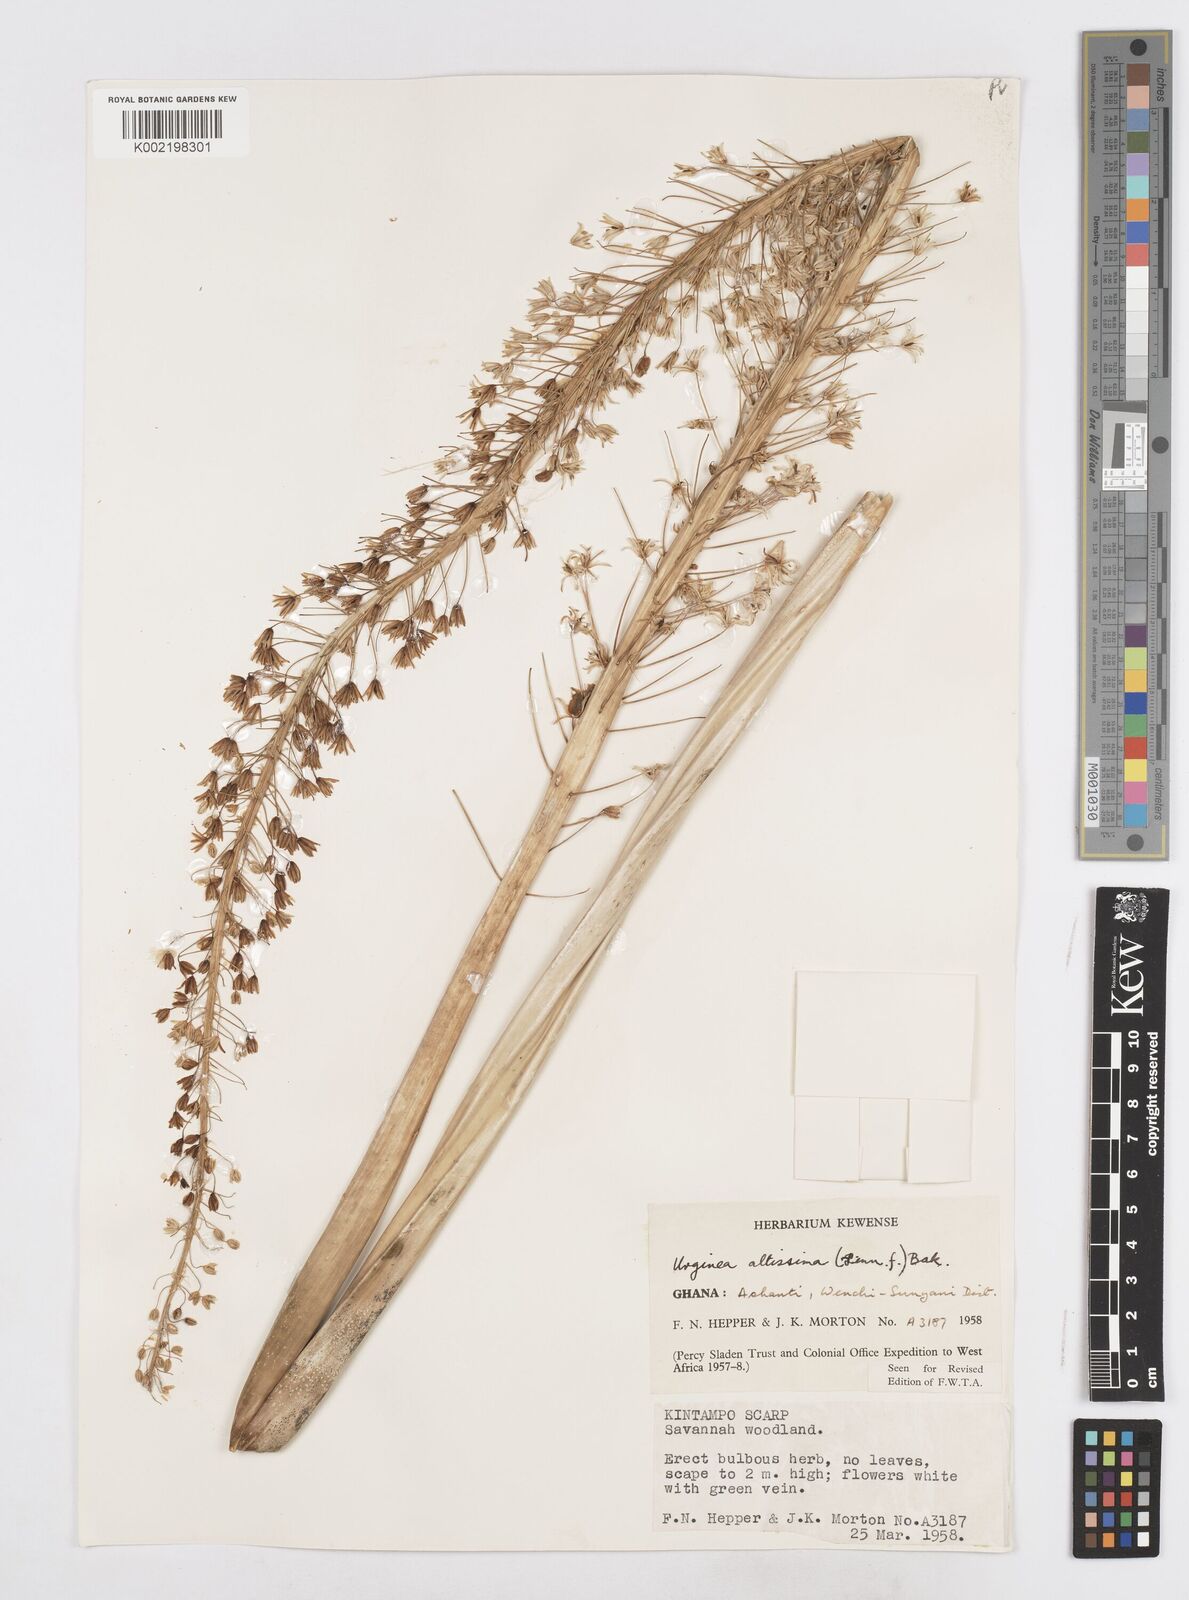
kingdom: Plantae
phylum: Tracheophyta
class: Liliopsida
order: Asparagales
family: Asparagaceae
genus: Drimia
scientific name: Drimia altissima
